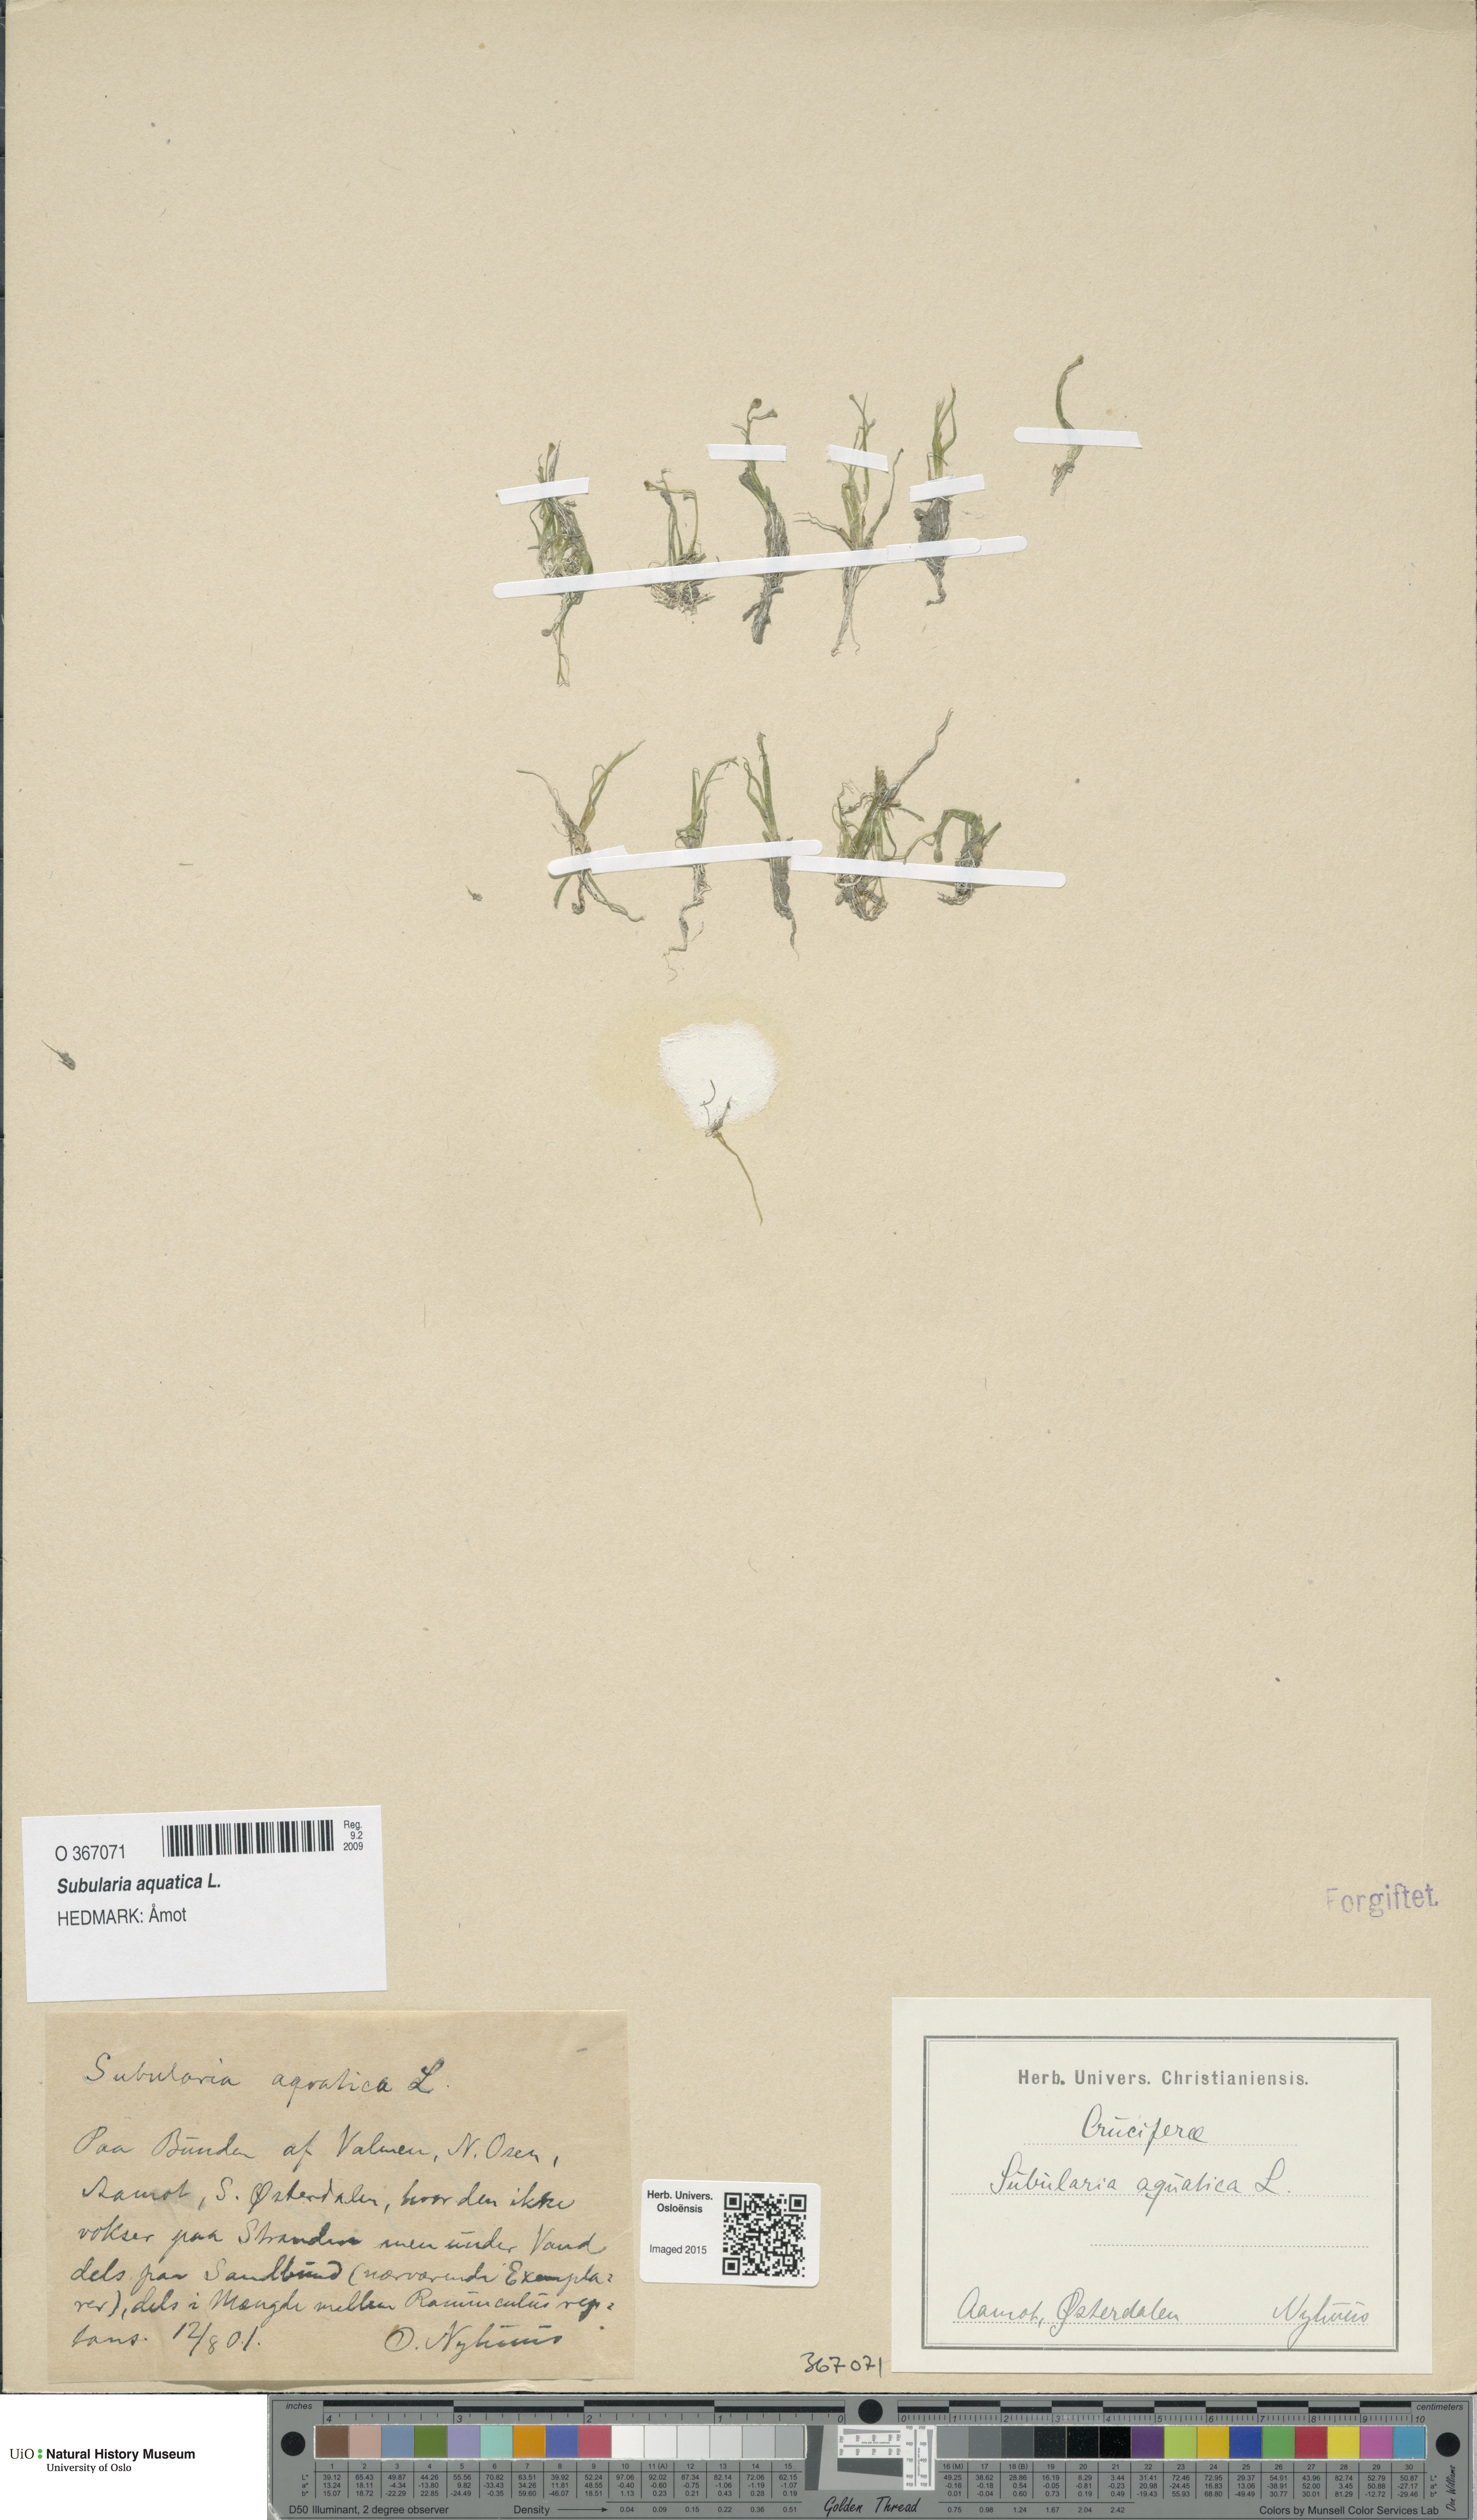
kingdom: Plantae
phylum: Tracheophyta
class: Magnoliopsida
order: Brassicales
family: Brassicaceae
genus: Subularia
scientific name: Subularia aquatica
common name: Awlwort
